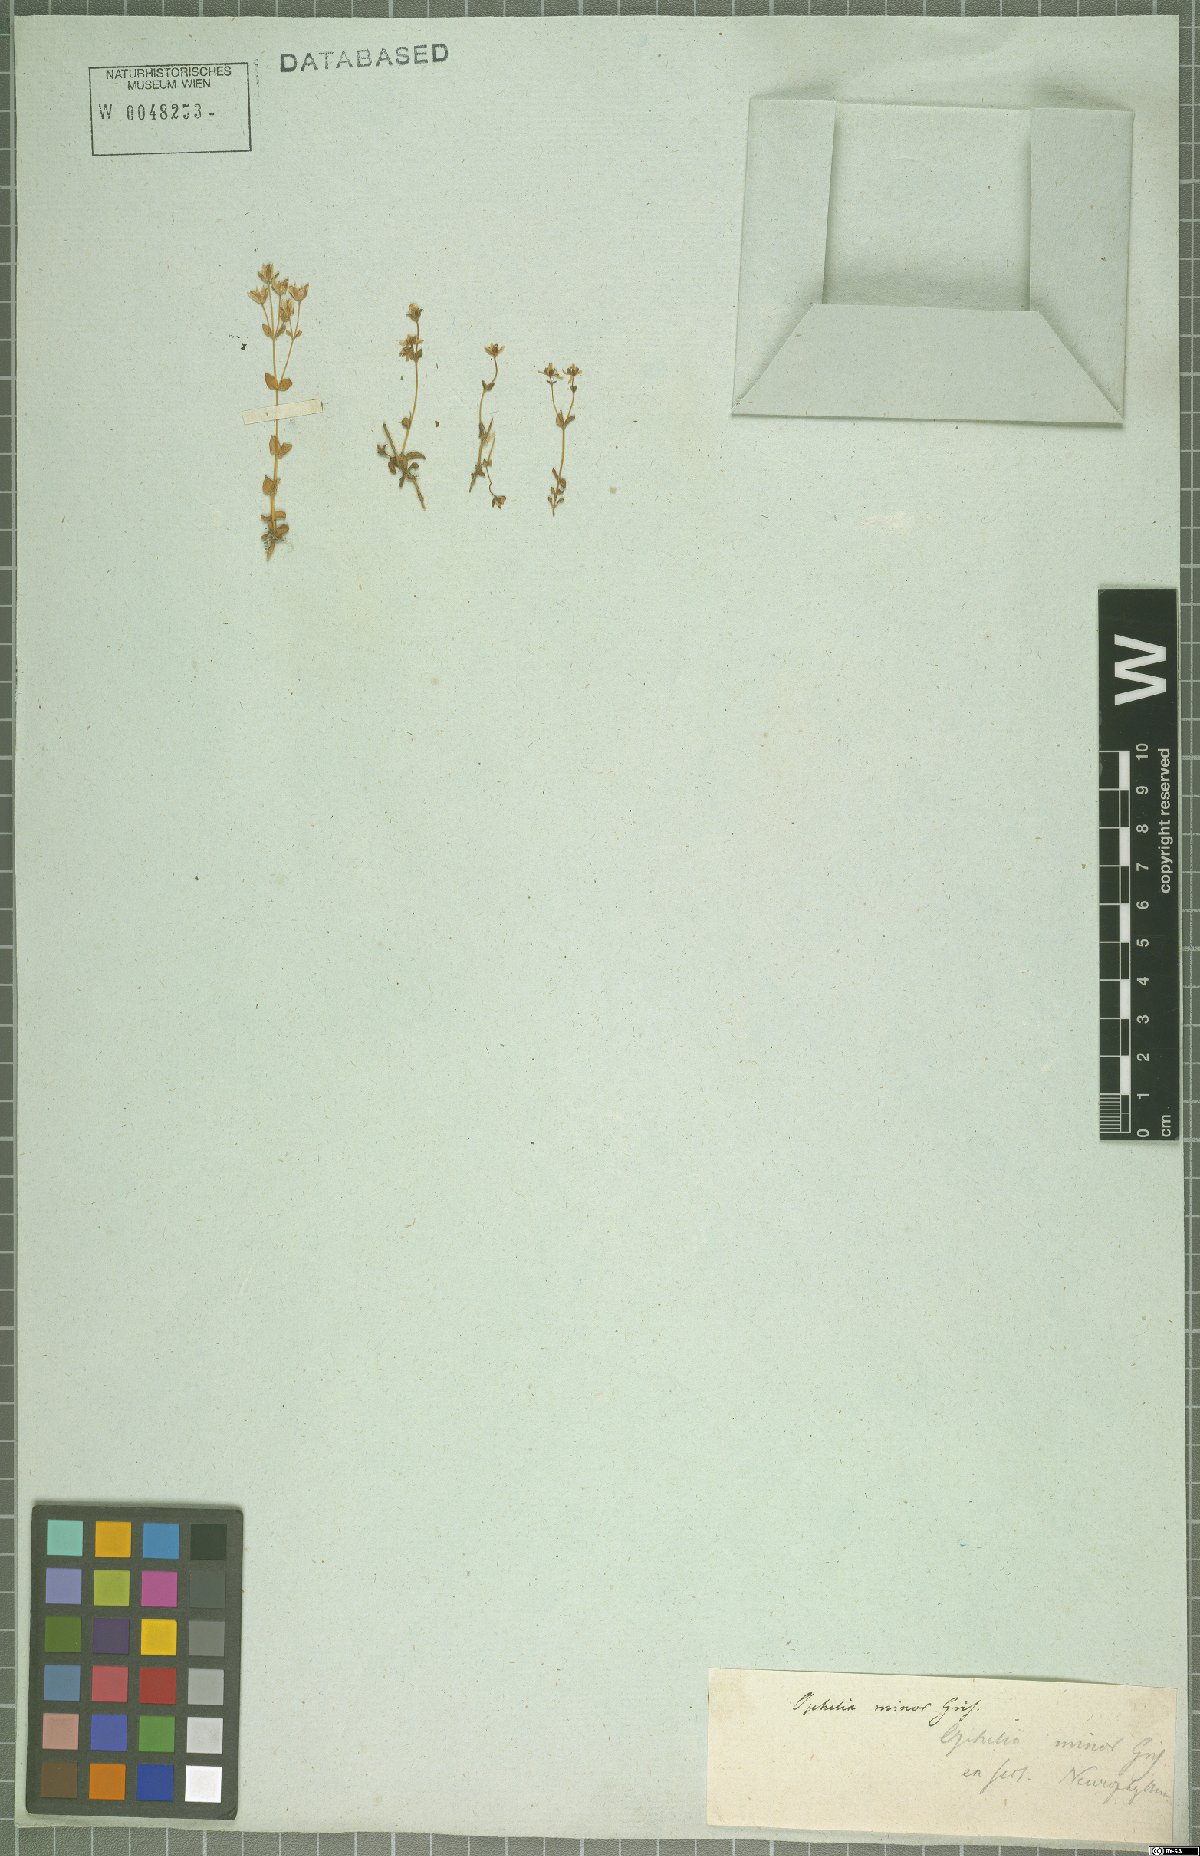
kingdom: Plantae
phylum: Tracheophyta
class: Magnoliopsida
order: Gentianales
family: Gentianaceae
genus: Lomatogonium
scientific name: Lomatogonium minus
